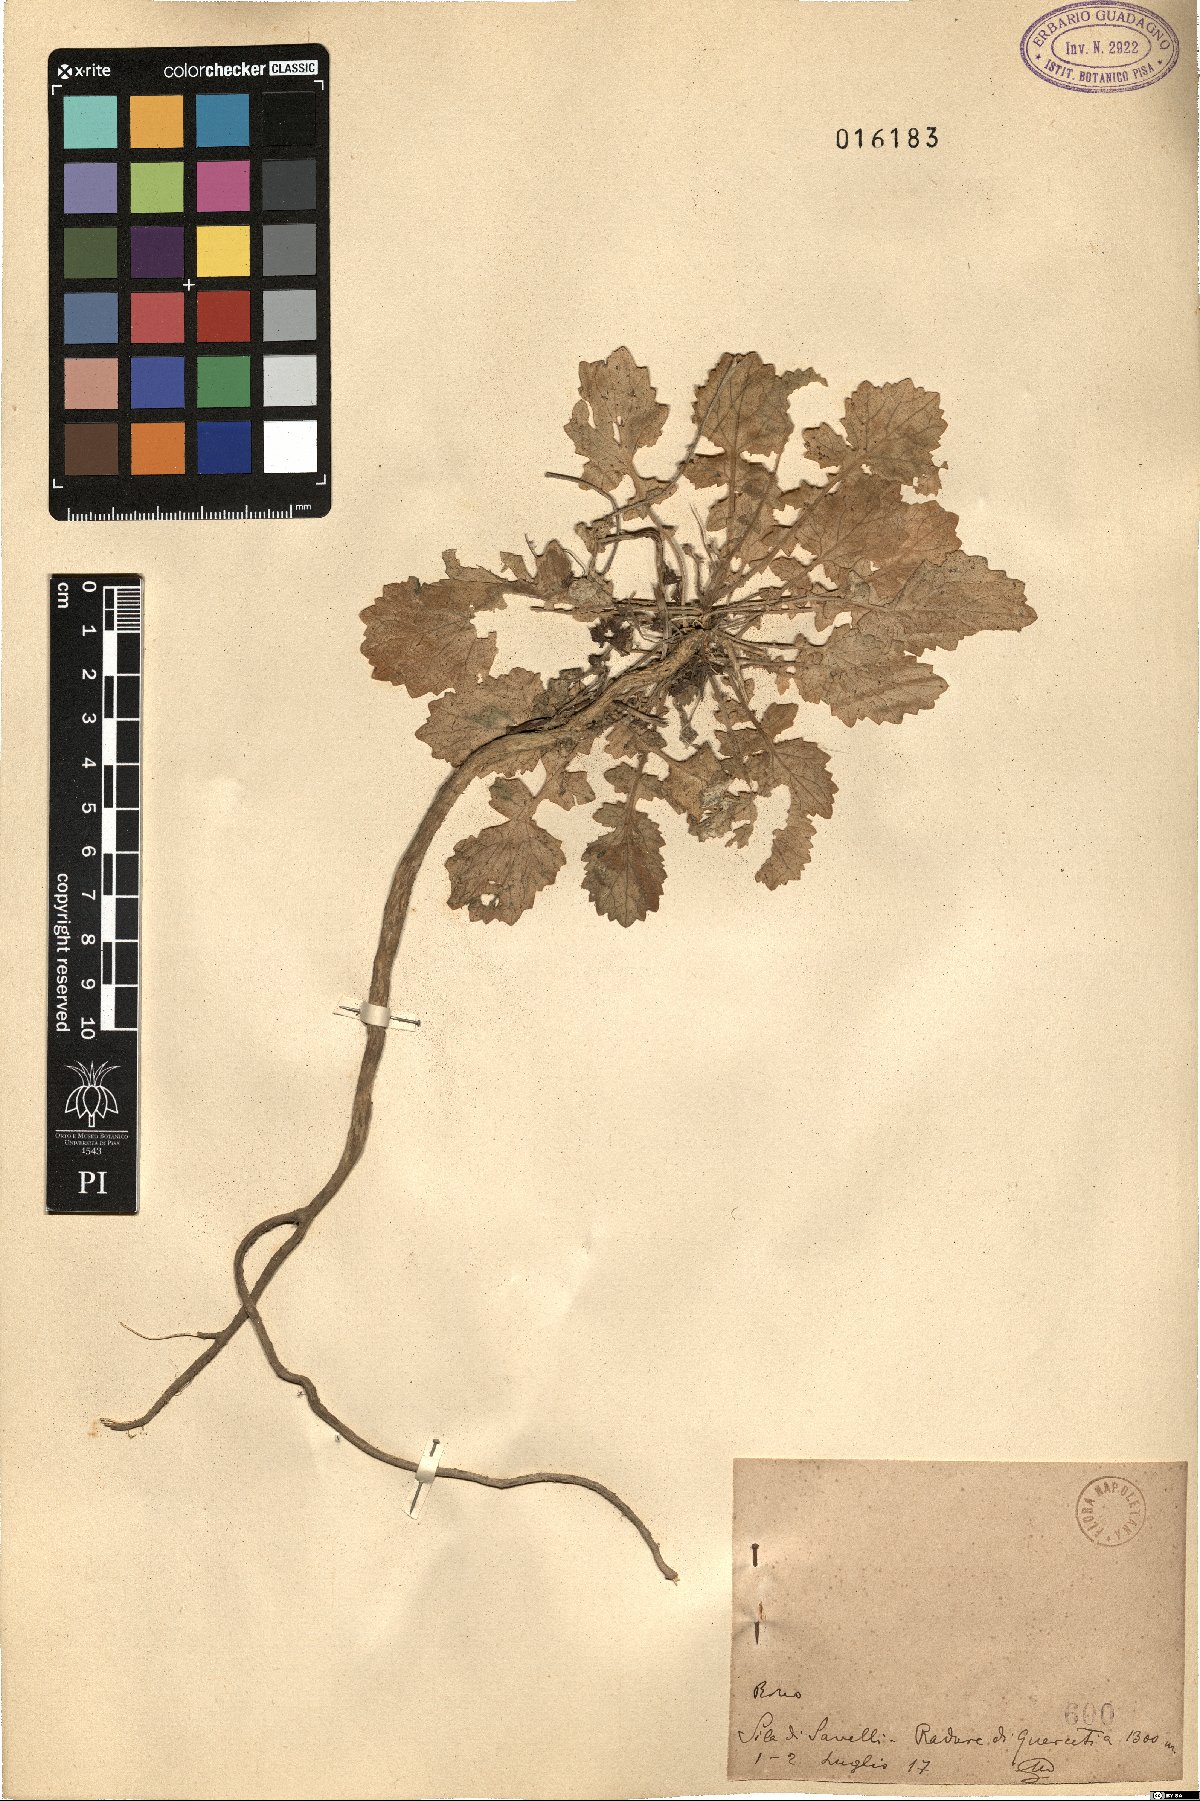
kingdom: Plantae
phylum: Tracheophyta
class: Magnoliopsida
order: Brassicales
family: Brassicaceae
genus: Brassica
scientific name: Brassica
